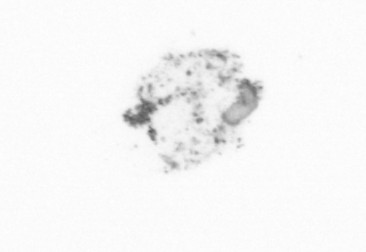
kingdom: Chromista
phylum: Ochrophyta
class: Bacillariophyceae
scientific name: Bacillariophyceae
